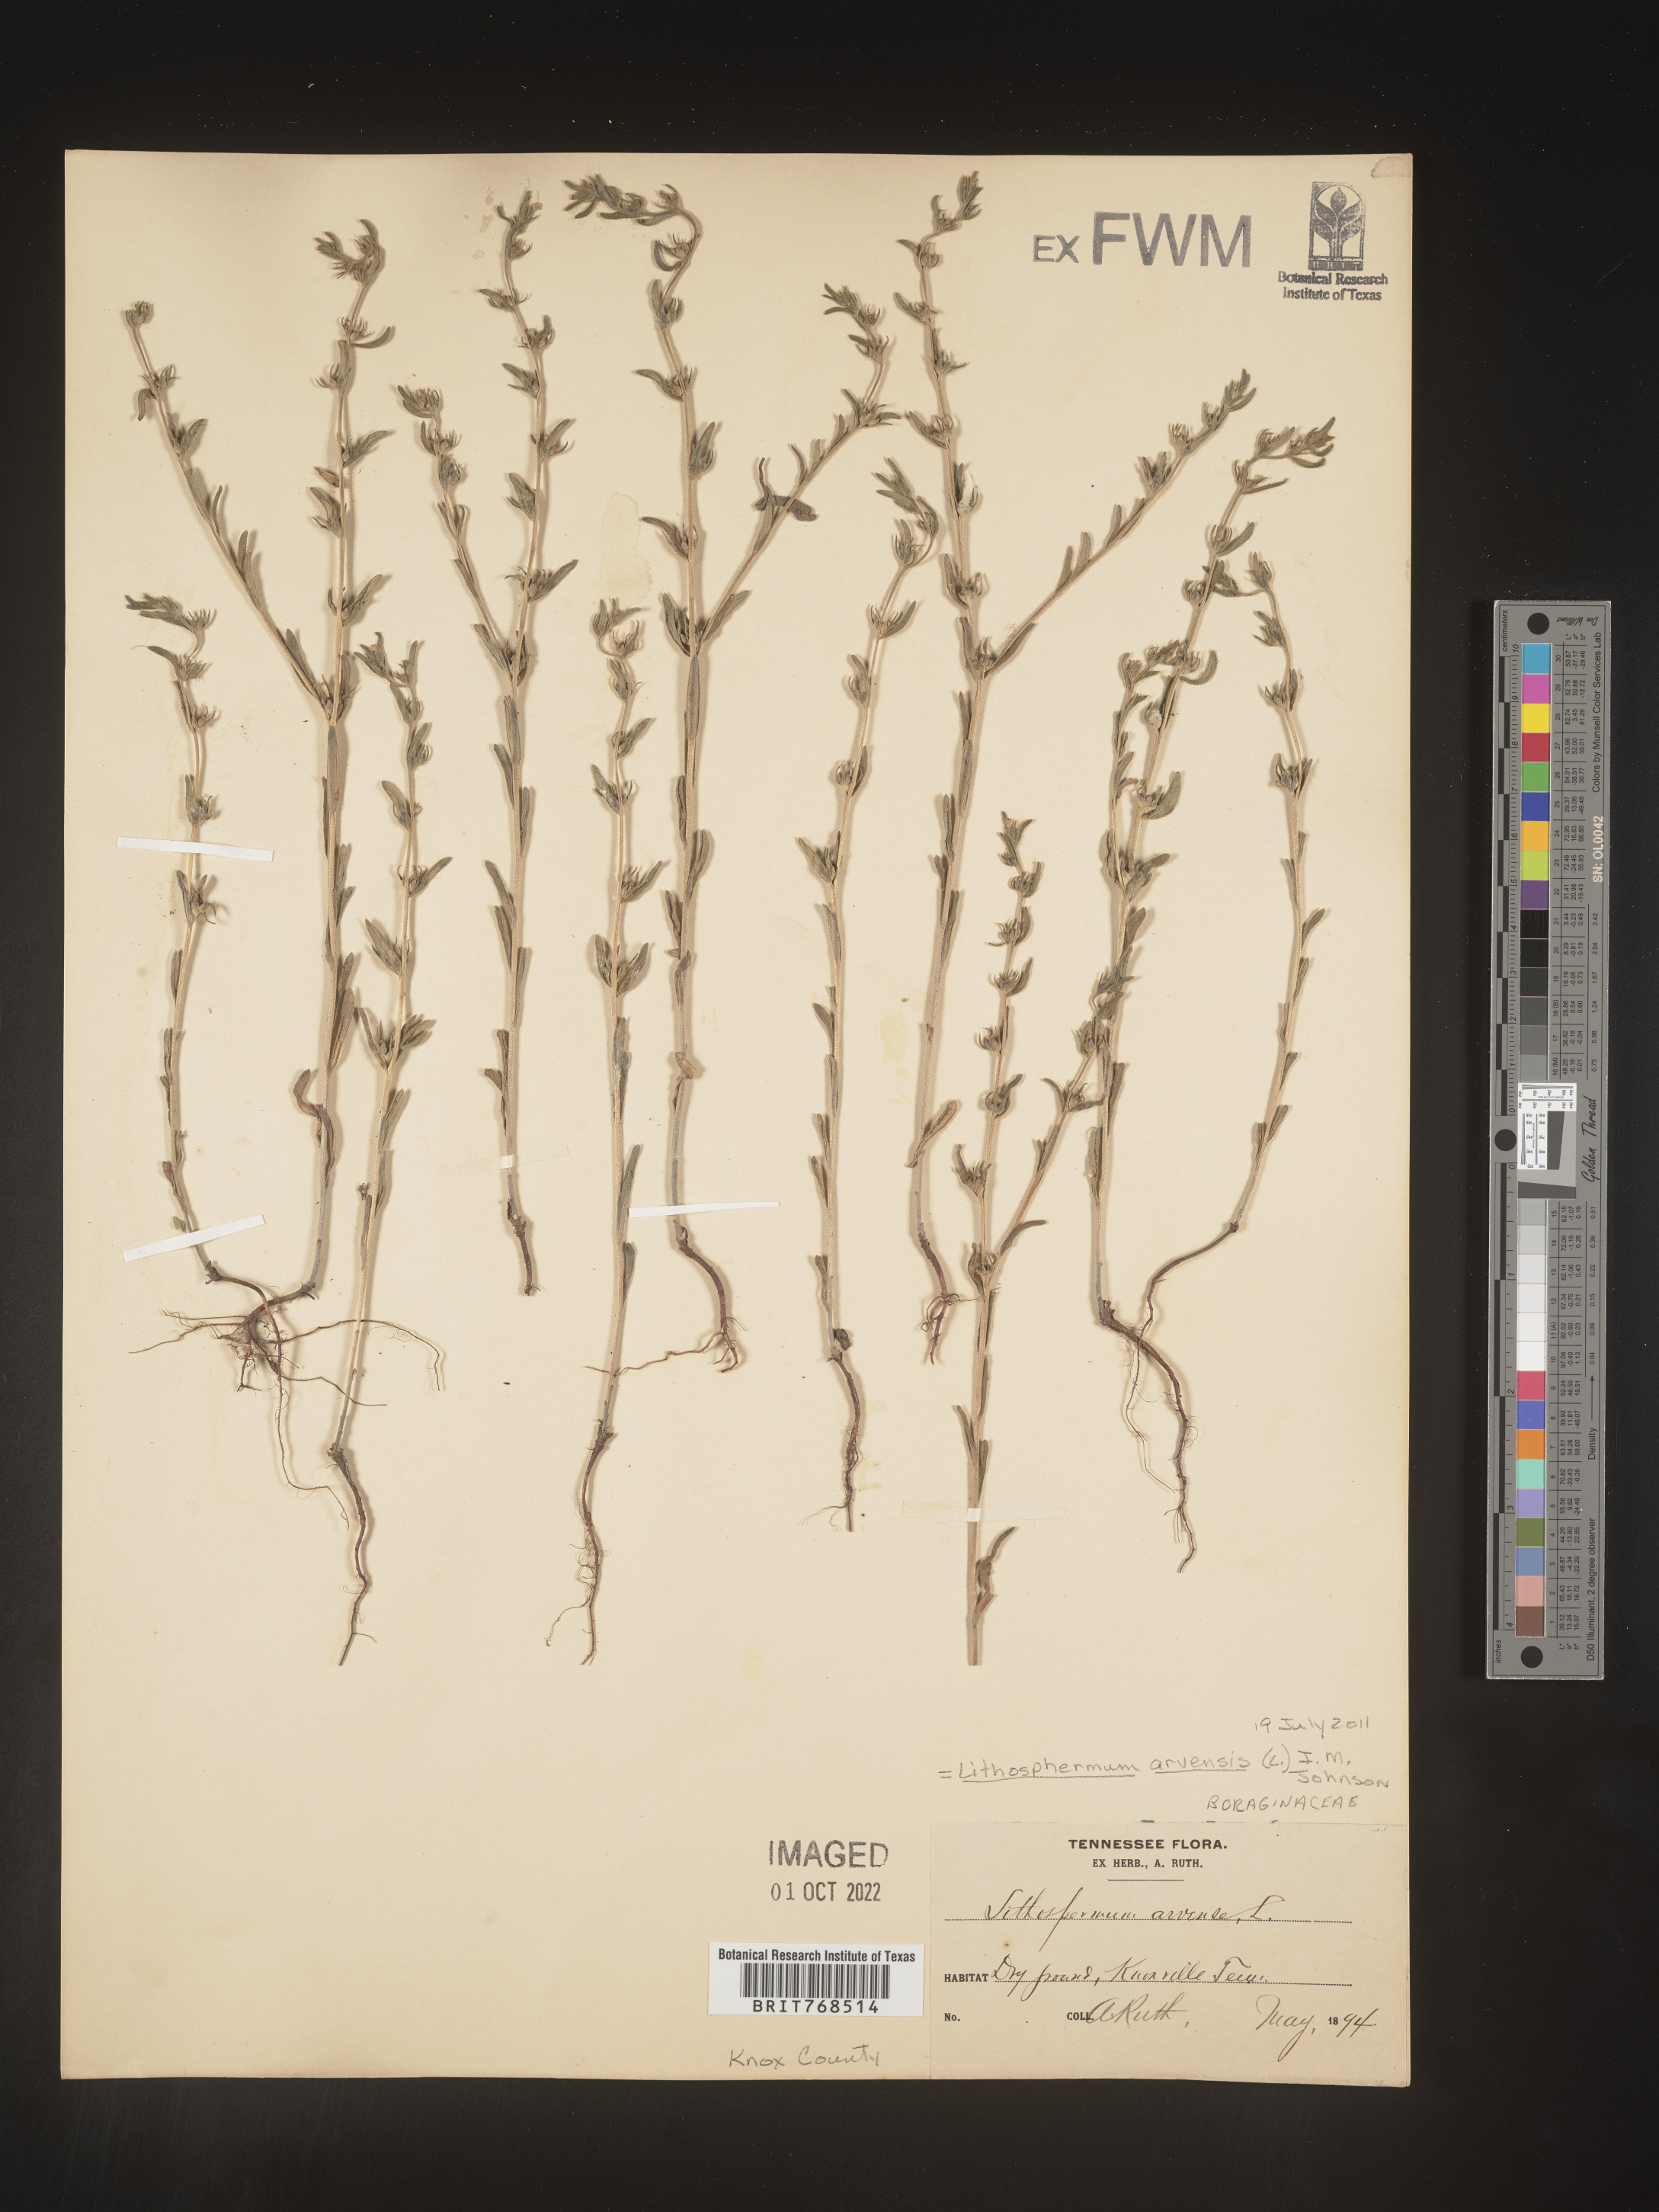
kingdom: Plantae
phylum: Tracheophyta
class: Magnoliopsida
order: Boraginales
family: Boraginaceae
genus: Lithospermum
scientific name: Lithospermum
